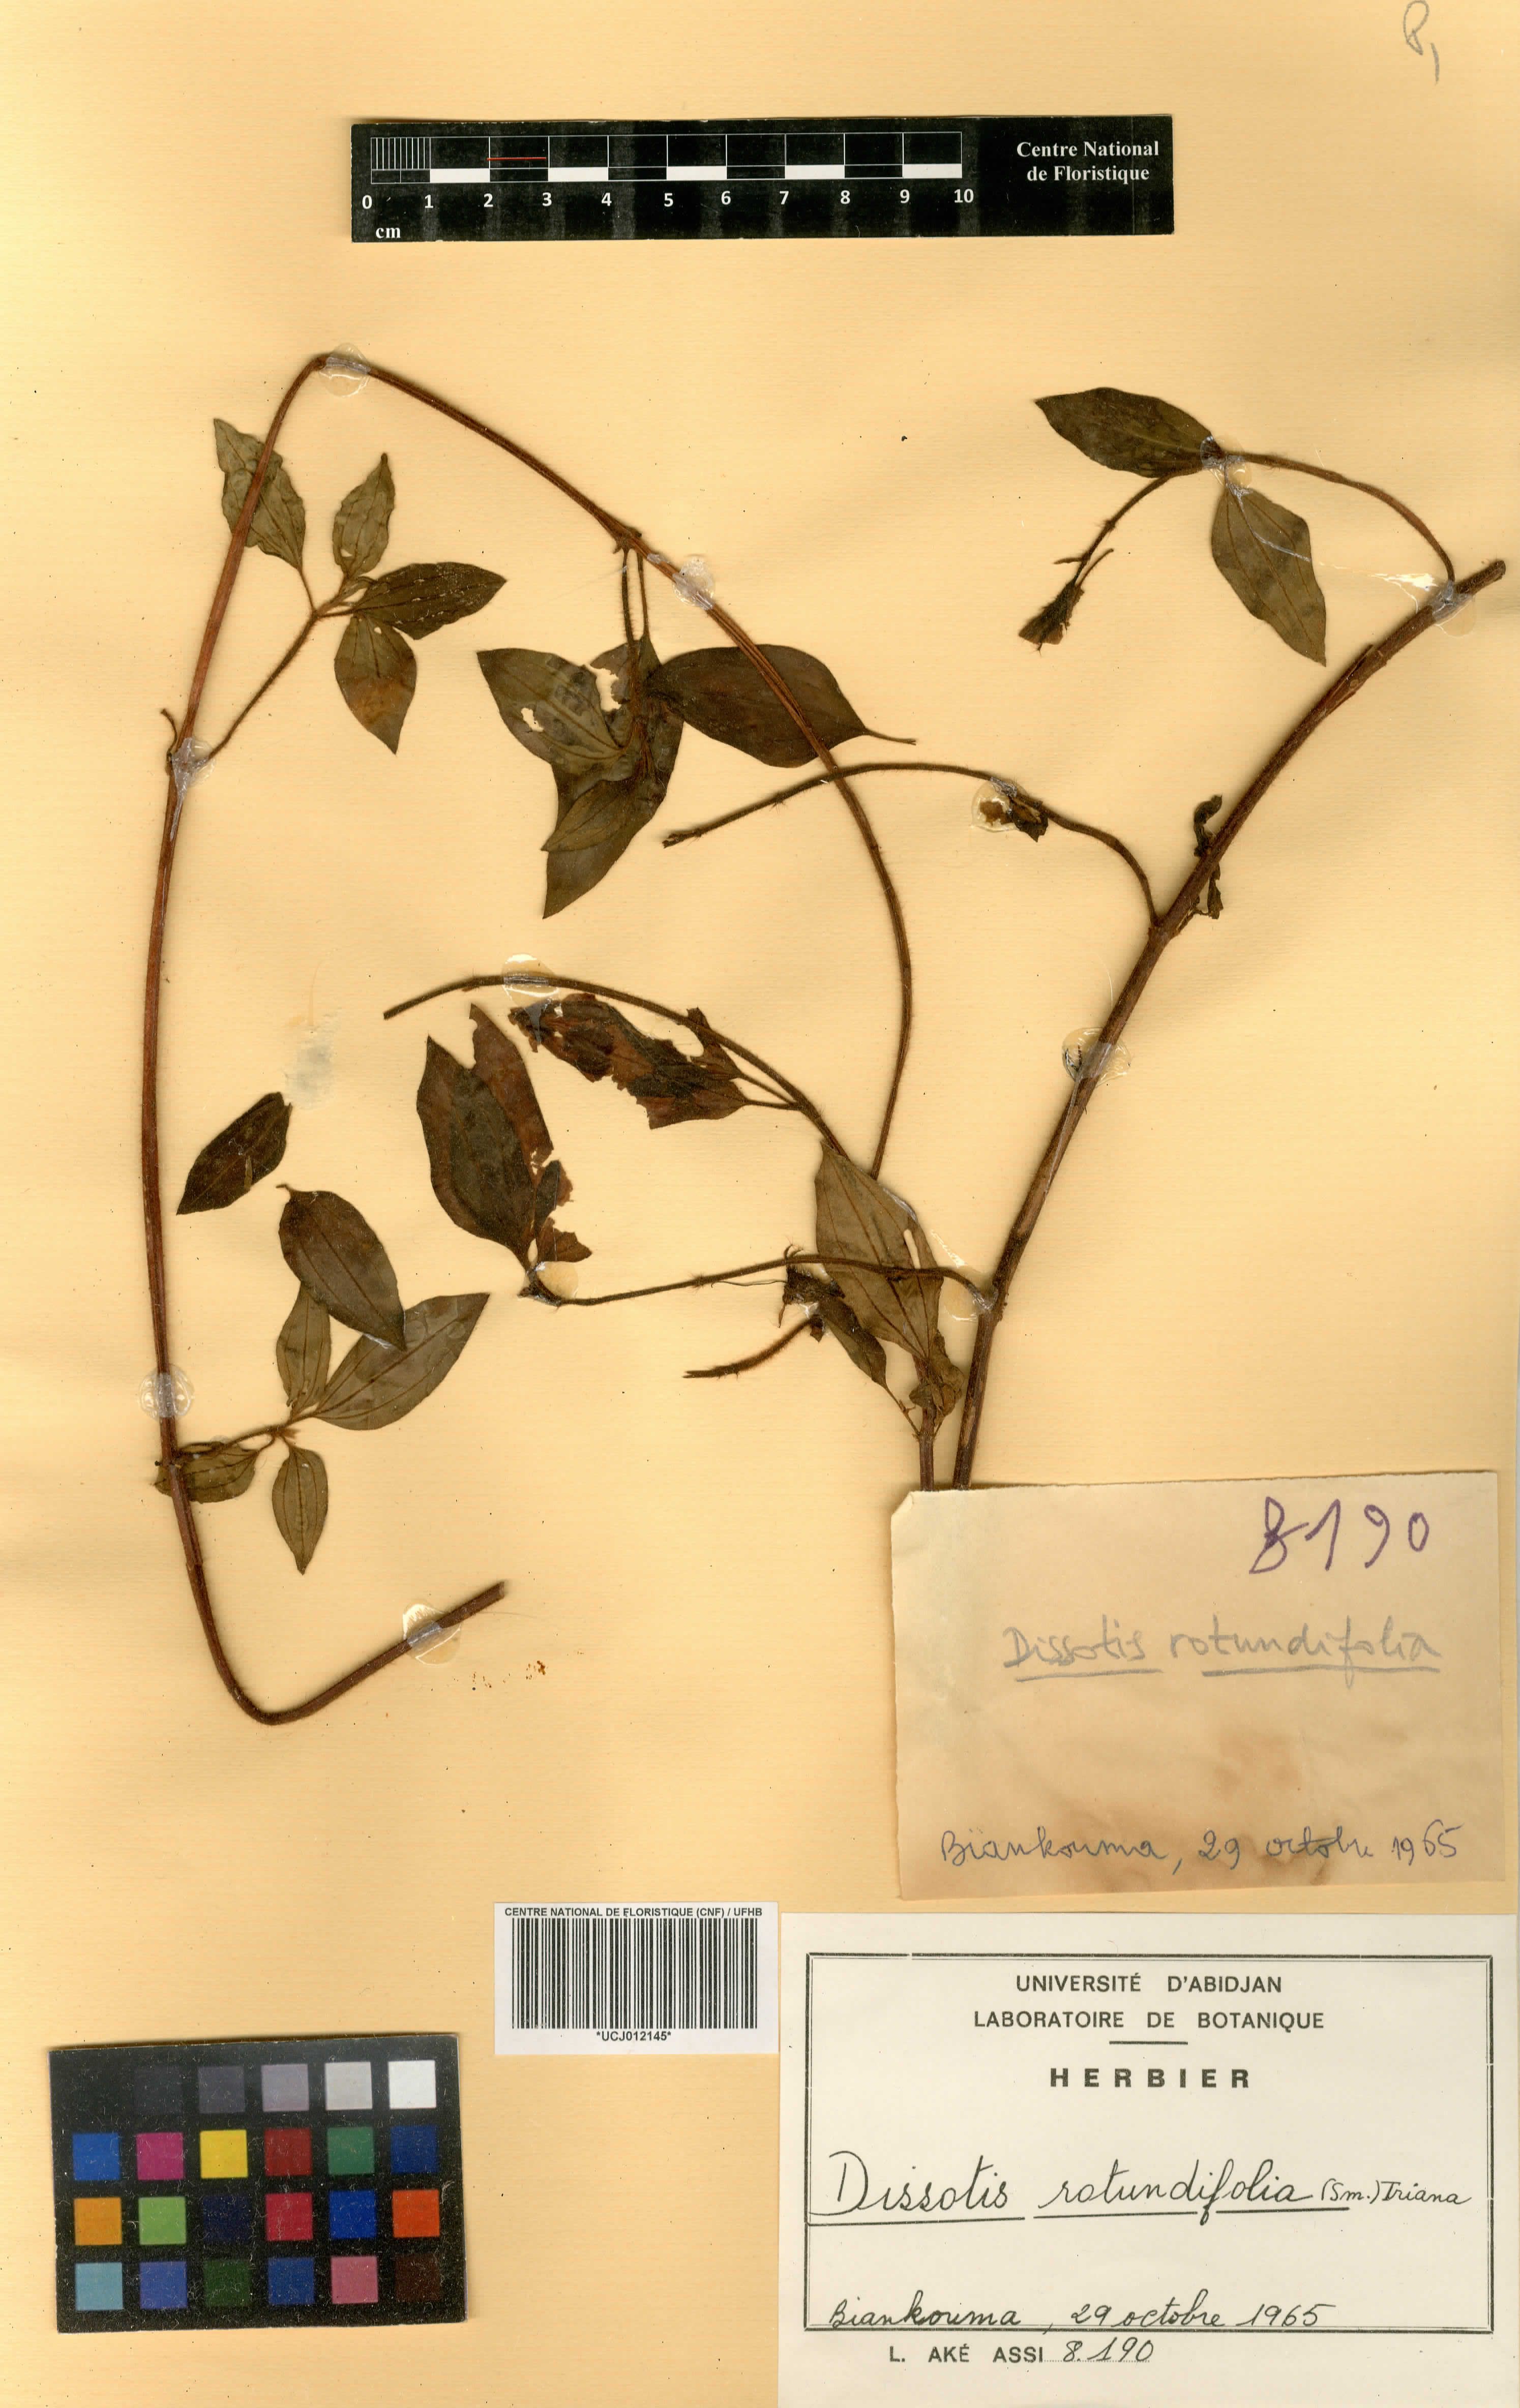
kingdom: Plantae
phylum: Tracheophyta
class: Magnoliopsida
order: Myrtales
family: Melastomataceae
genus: Heterotis
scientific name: Heterotis rotundifolia
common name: Pinklady
